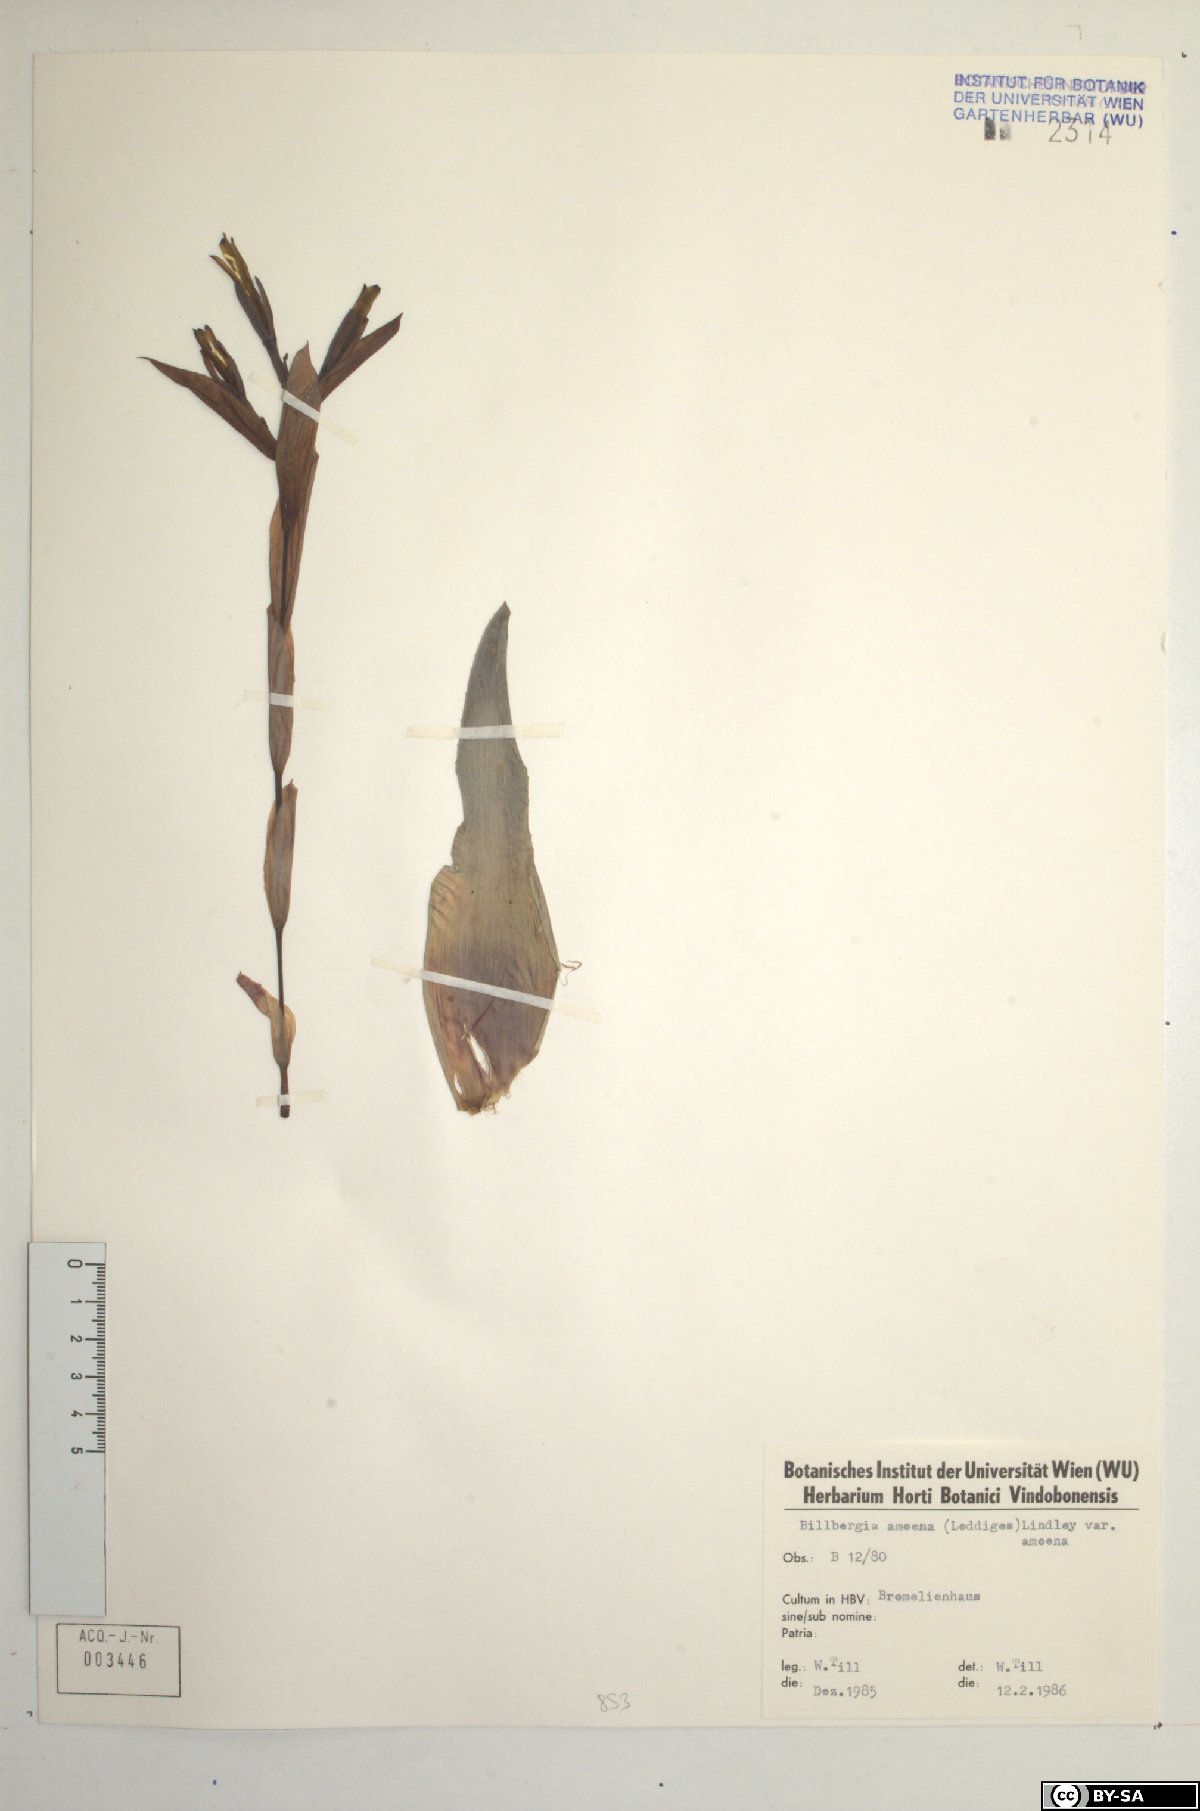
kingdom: Plantae
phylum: Tracheophyta
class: Liliopsida
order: Poales
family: Bromeliaceae
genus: Tillandsia
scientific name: Tillandsia tenuifolia
